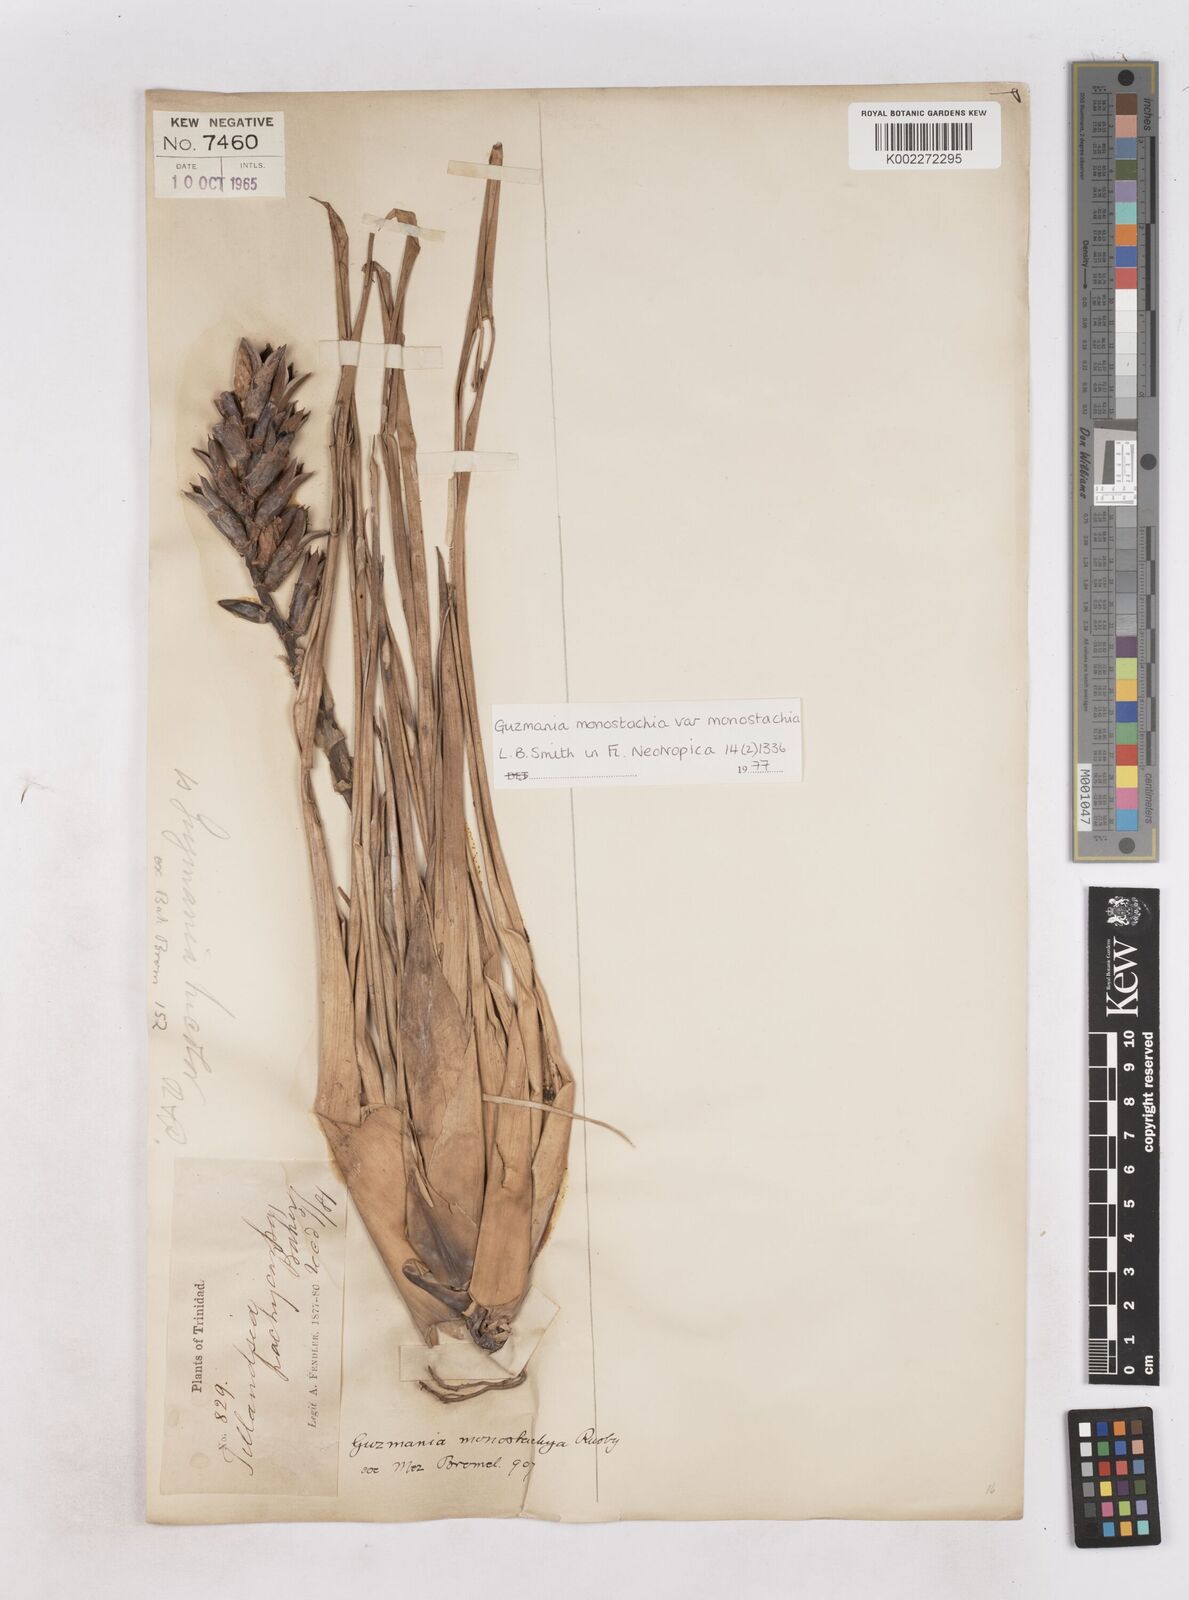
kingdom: Plantae
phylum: Tracheophyta
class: Liliopsida
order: Poales
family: Bromeliaceae
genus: Guzmania
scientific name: Guzmania monostachia
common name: West indian tufted airplant
